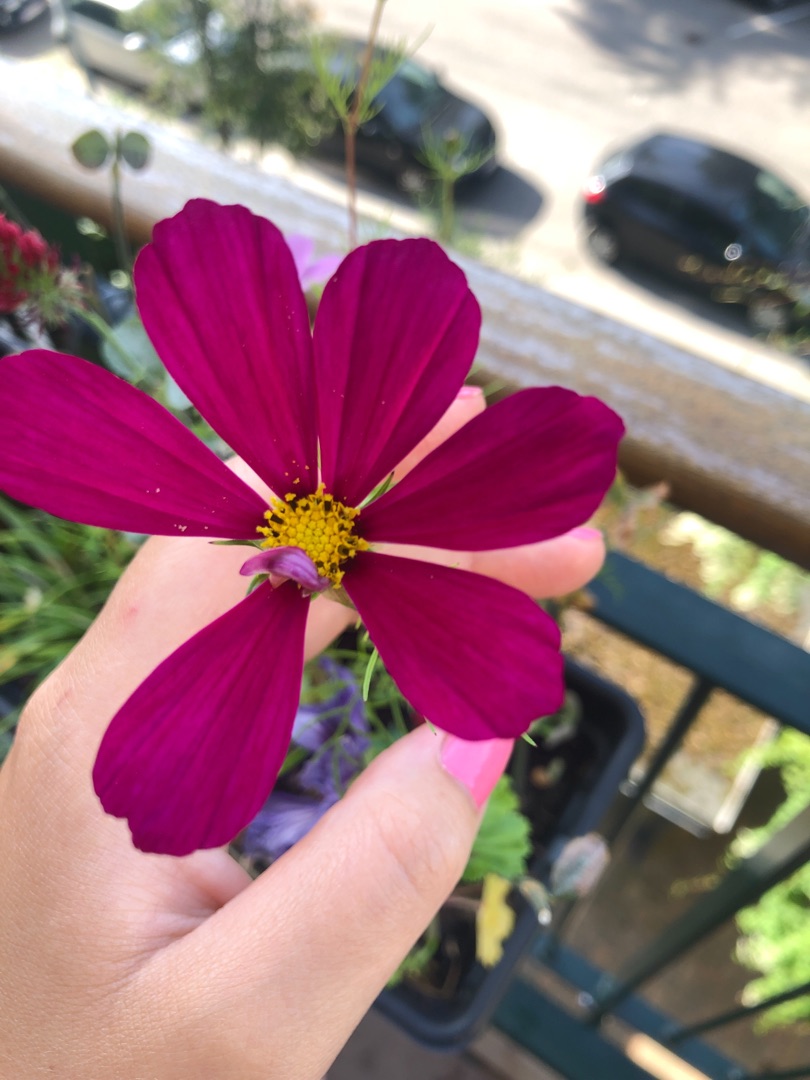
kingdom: Plantae
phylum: Tracheophyta
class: Magnoliopsida
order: Asterales
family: Asteraceae
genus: Cosmos
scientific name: Cosmos bipinnatus
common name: Stolt kavaler
